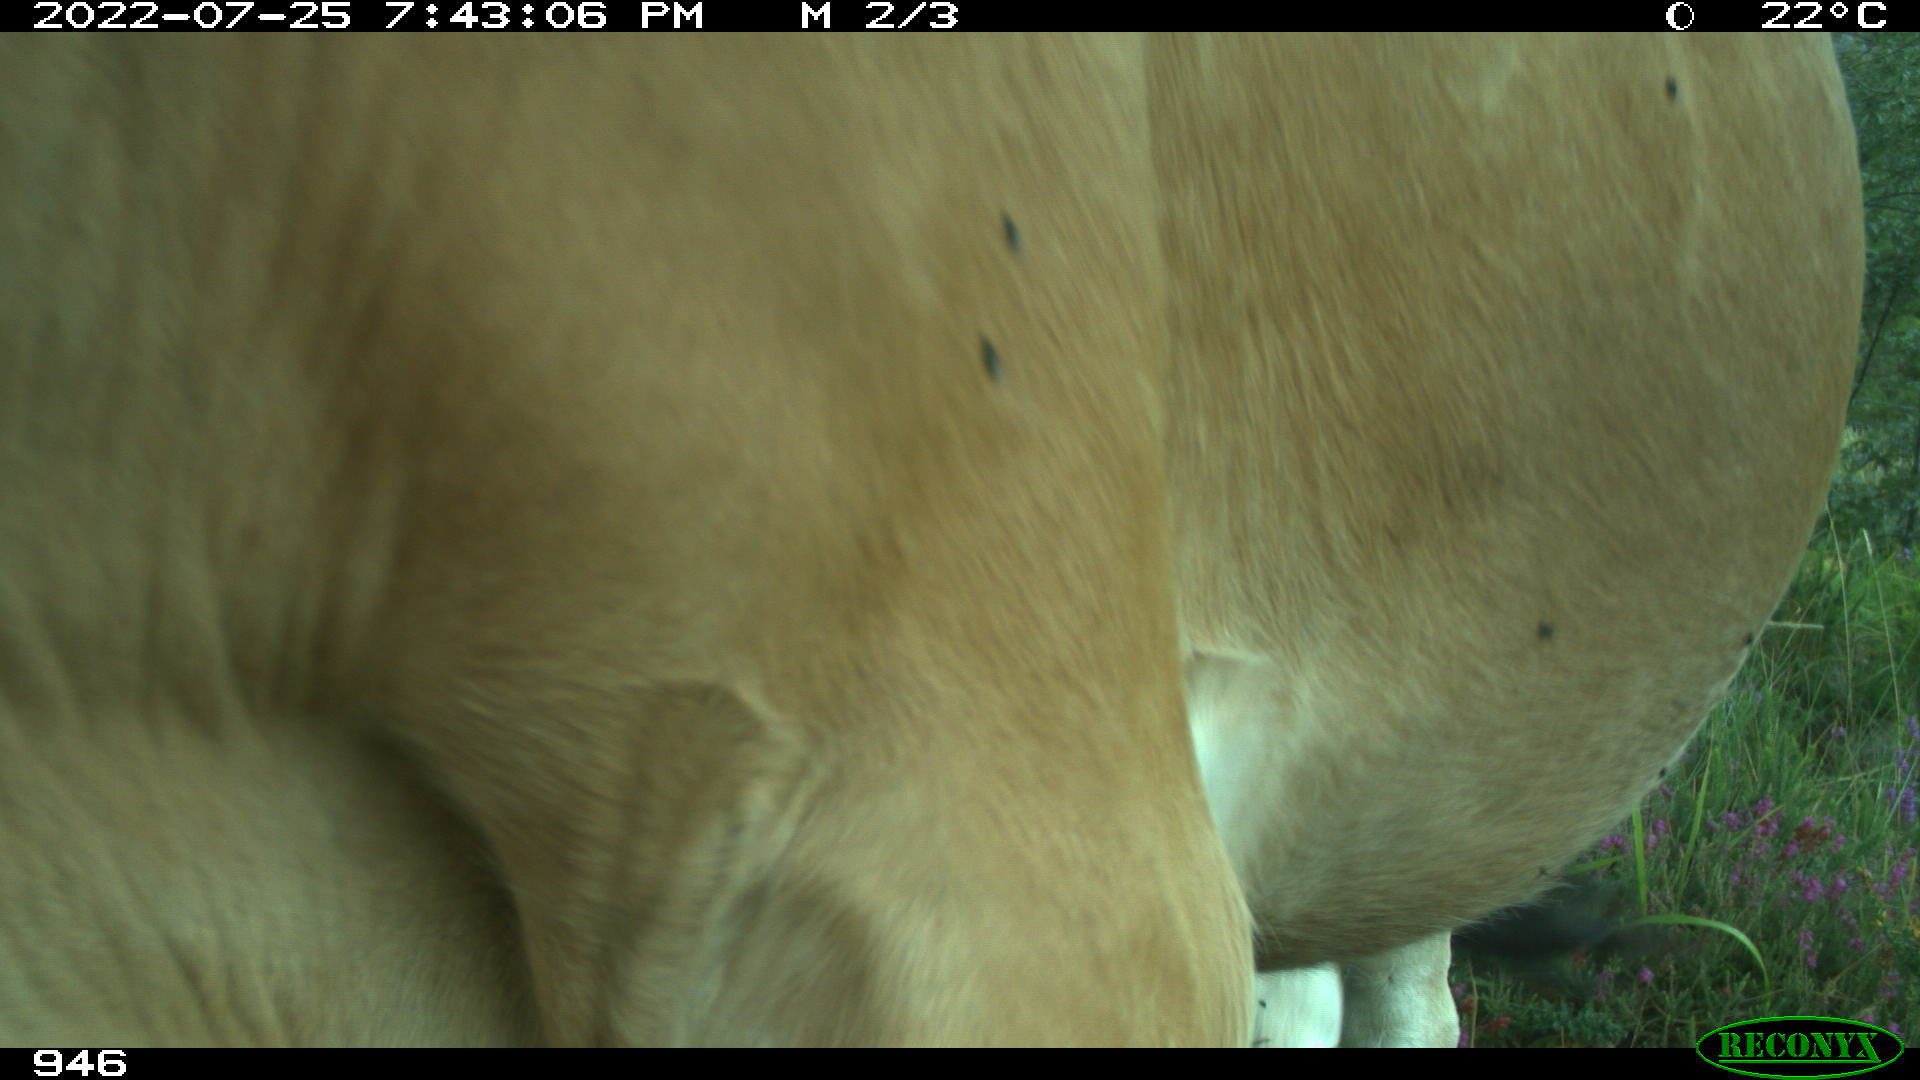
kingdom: Animalia
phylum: Chordata
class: Mammalia
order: Artiodactyla
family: Bovidae
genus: Bos
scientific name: Bos taurus
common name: Domesticated cattle
